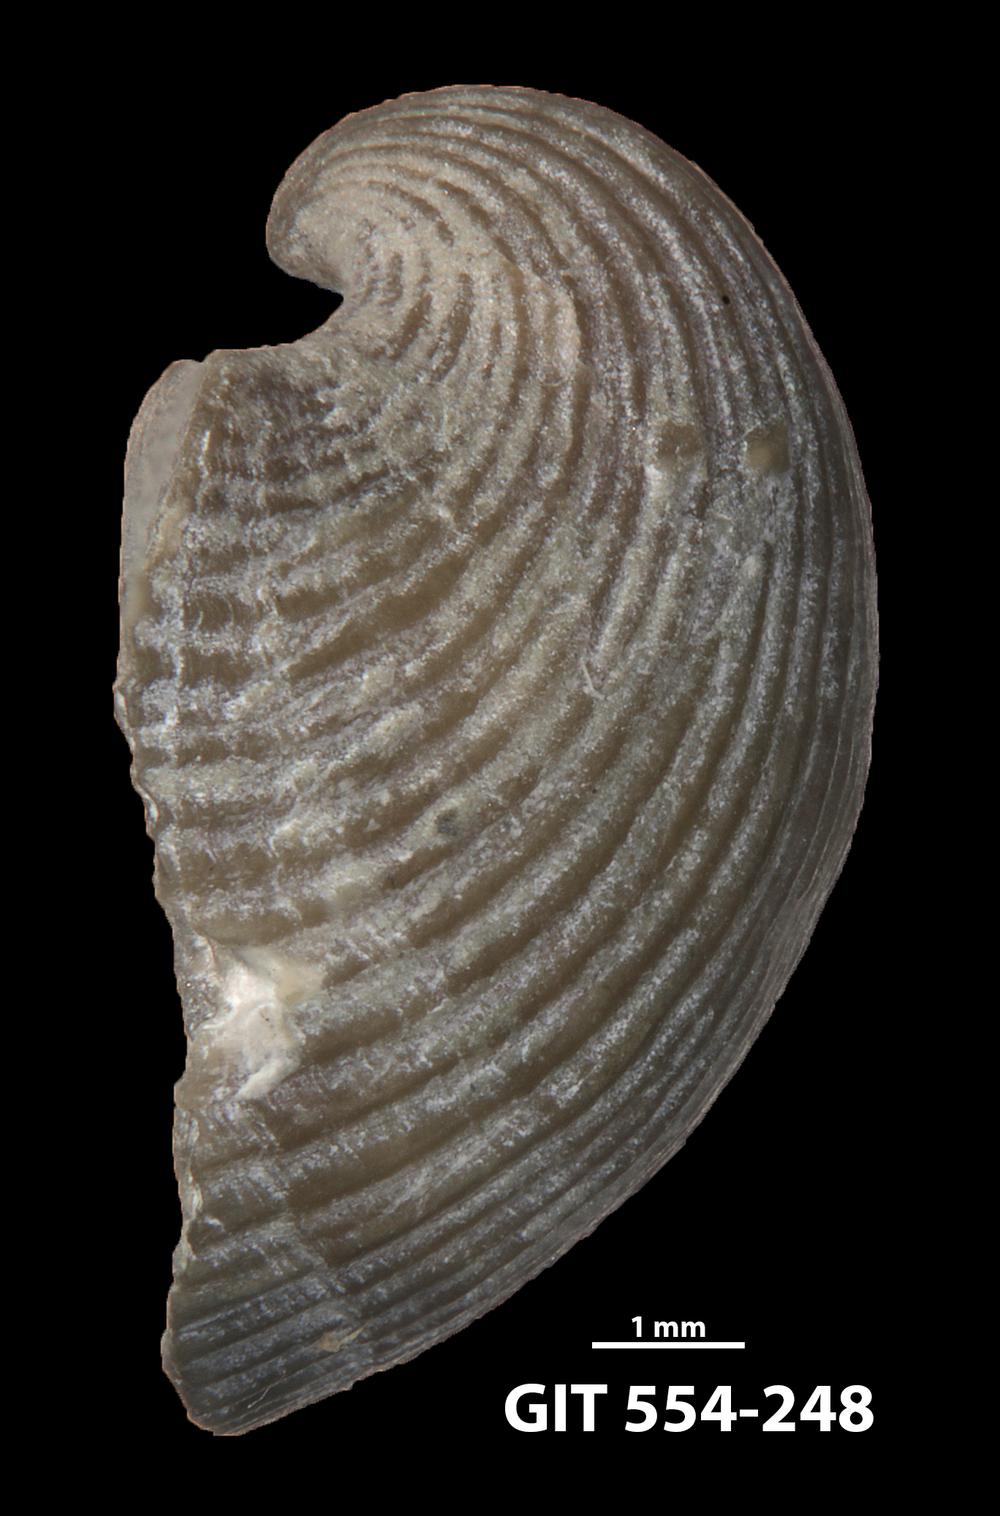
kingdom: Animalia
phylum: Brachiopoda
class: Rhynchonellata
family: Dalmanellidae
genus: Resserella
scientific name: Resserella Orthis canalis
